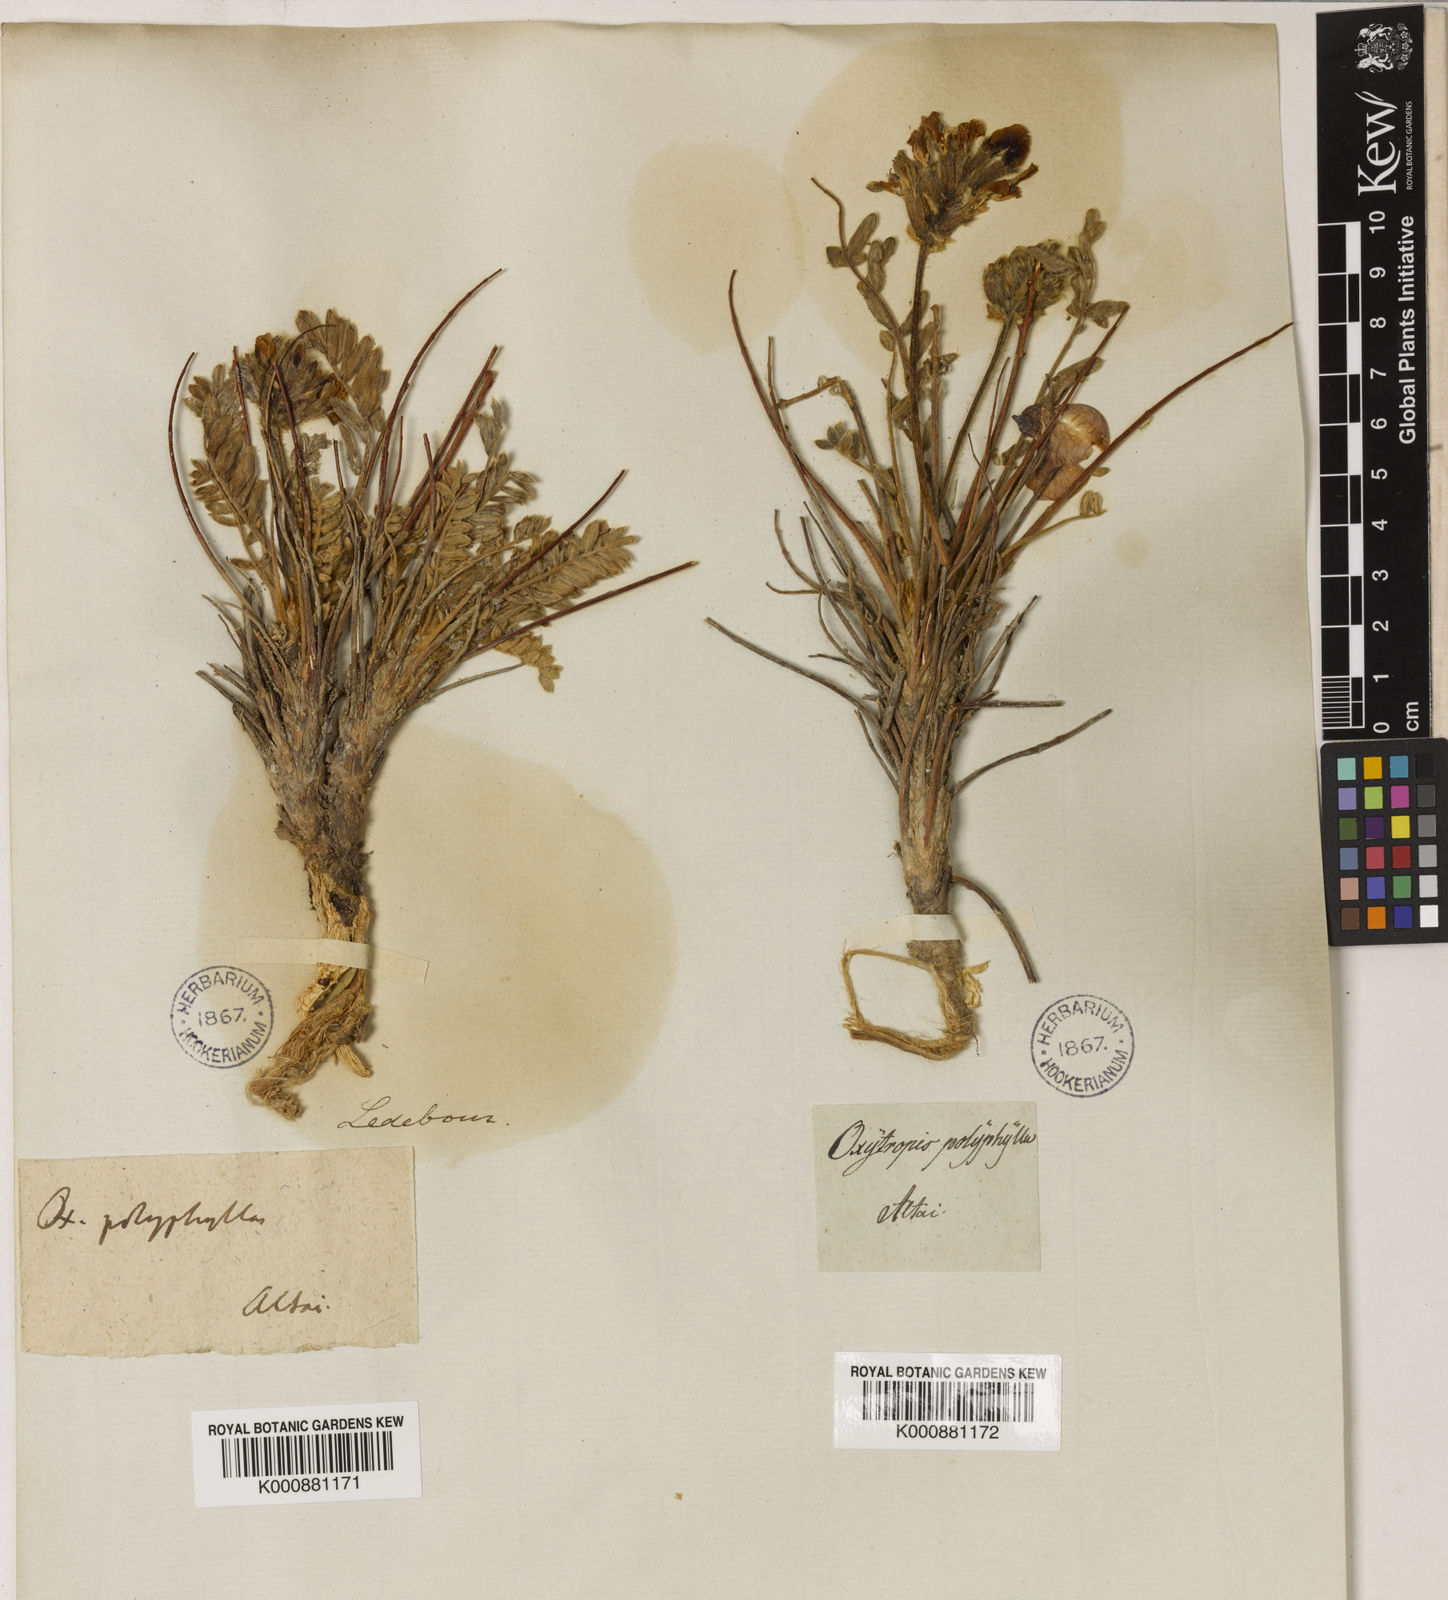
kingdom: Plantae
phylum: Tracheophyta
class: Magnoliopsida
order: Fabales
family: Fabaceae
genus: Oxytropis
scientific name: Oxytropis polyphylla
